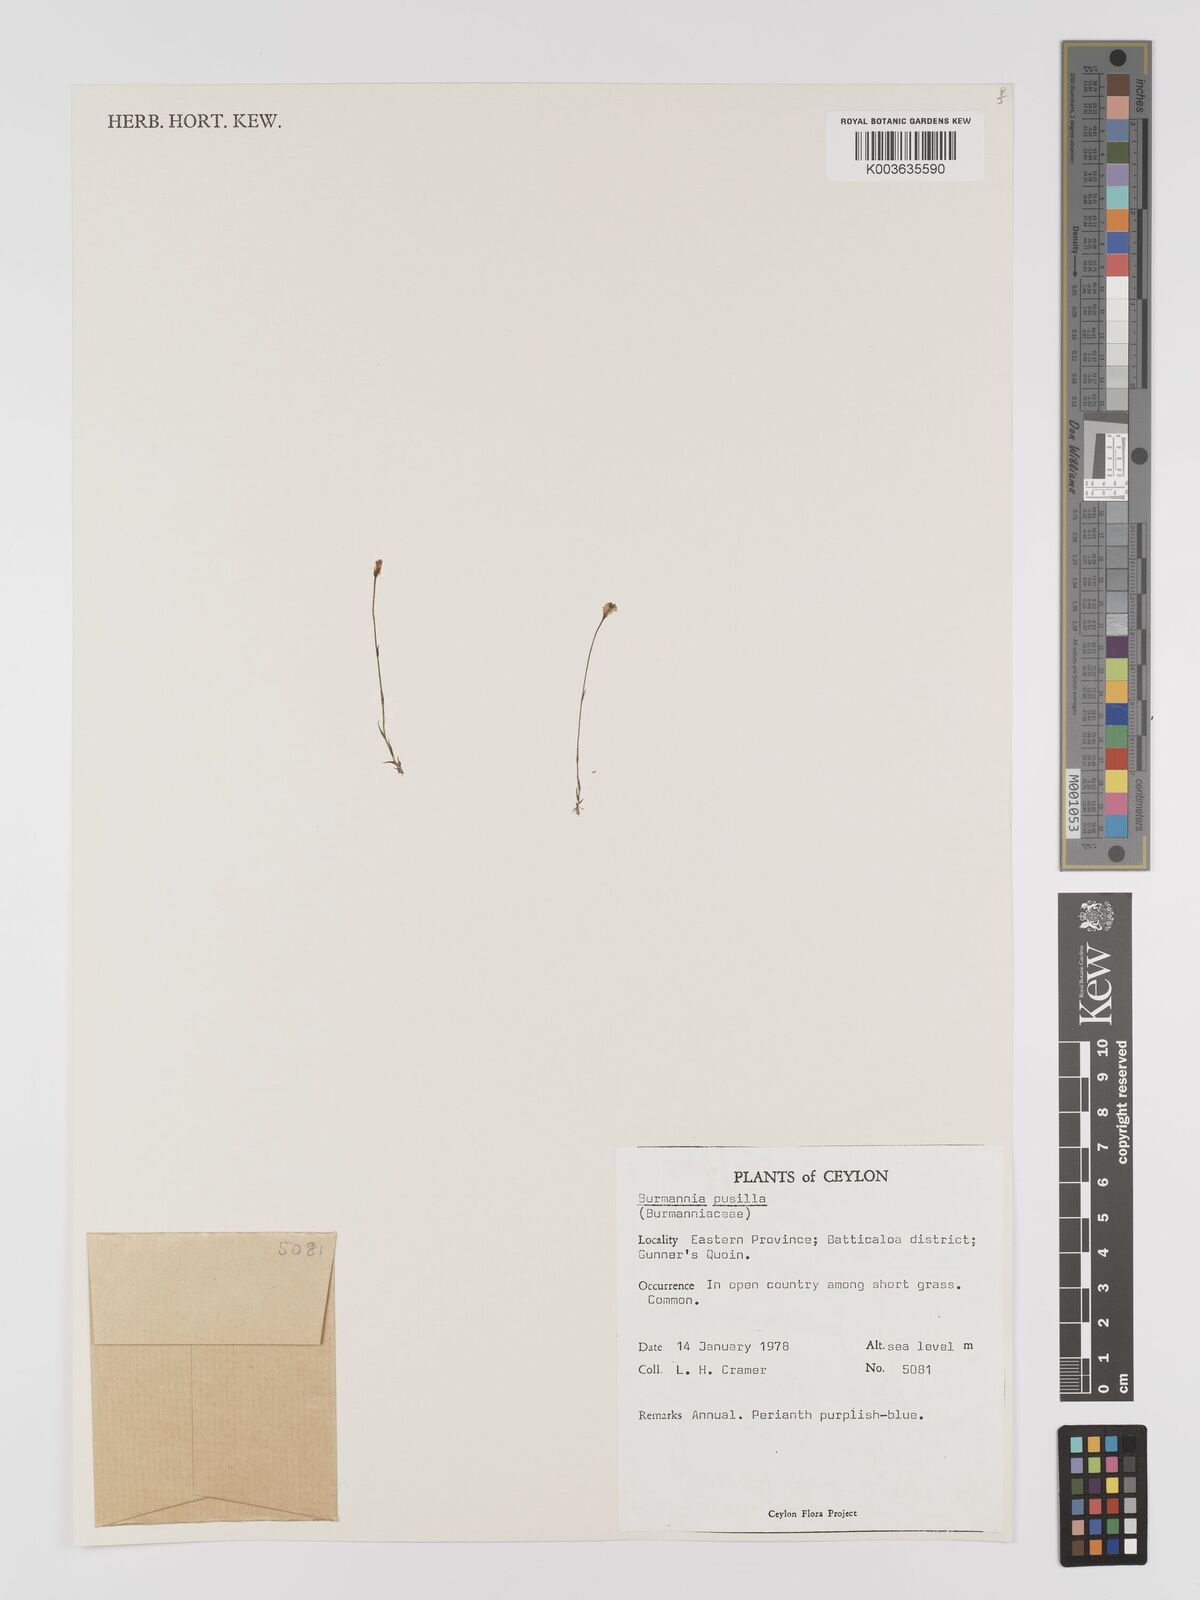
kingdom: Plantae
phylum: Tracheophyta
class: Liliopsida
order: Dioscoreales
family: Burmanniaceae
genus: Burmannia
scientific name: Burmannia pusilla
